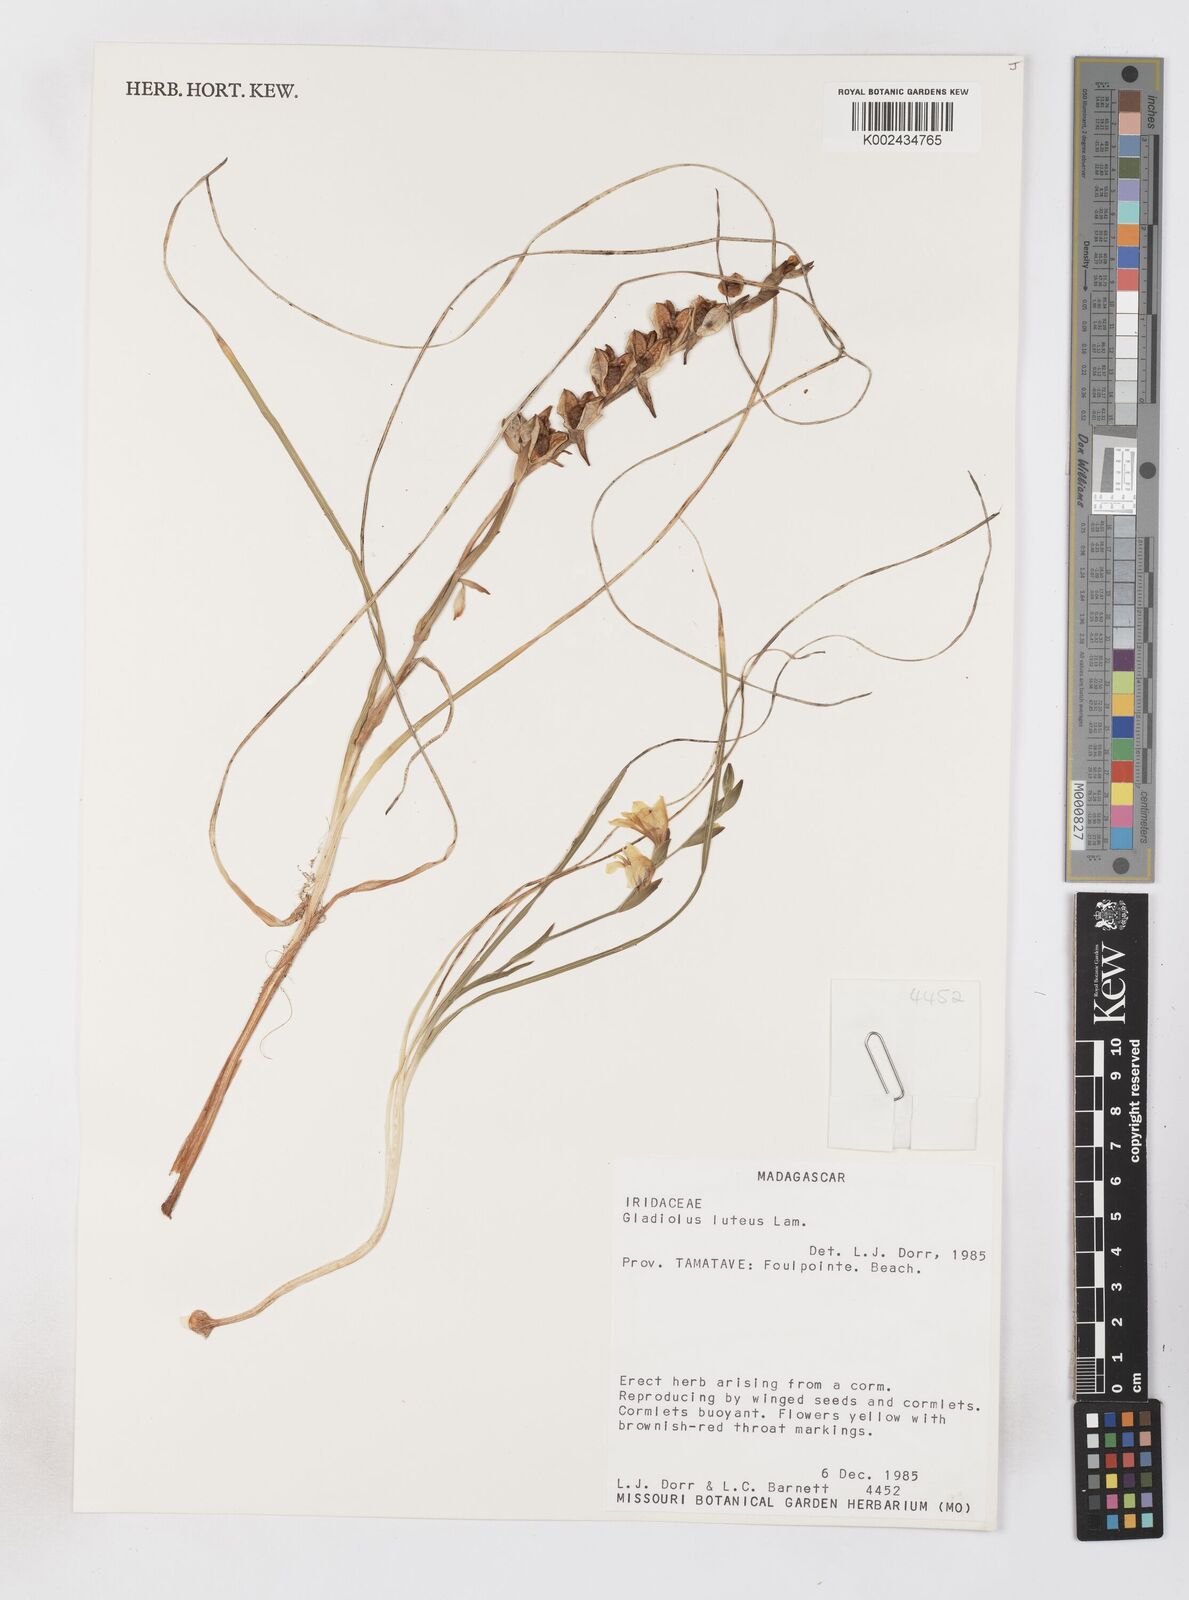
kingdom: Plantae
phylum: Tracheophyta
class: Liliopsida
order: Asparagales
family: Iridaceae
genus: Gladiolus
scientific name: Gladiolus luteus
